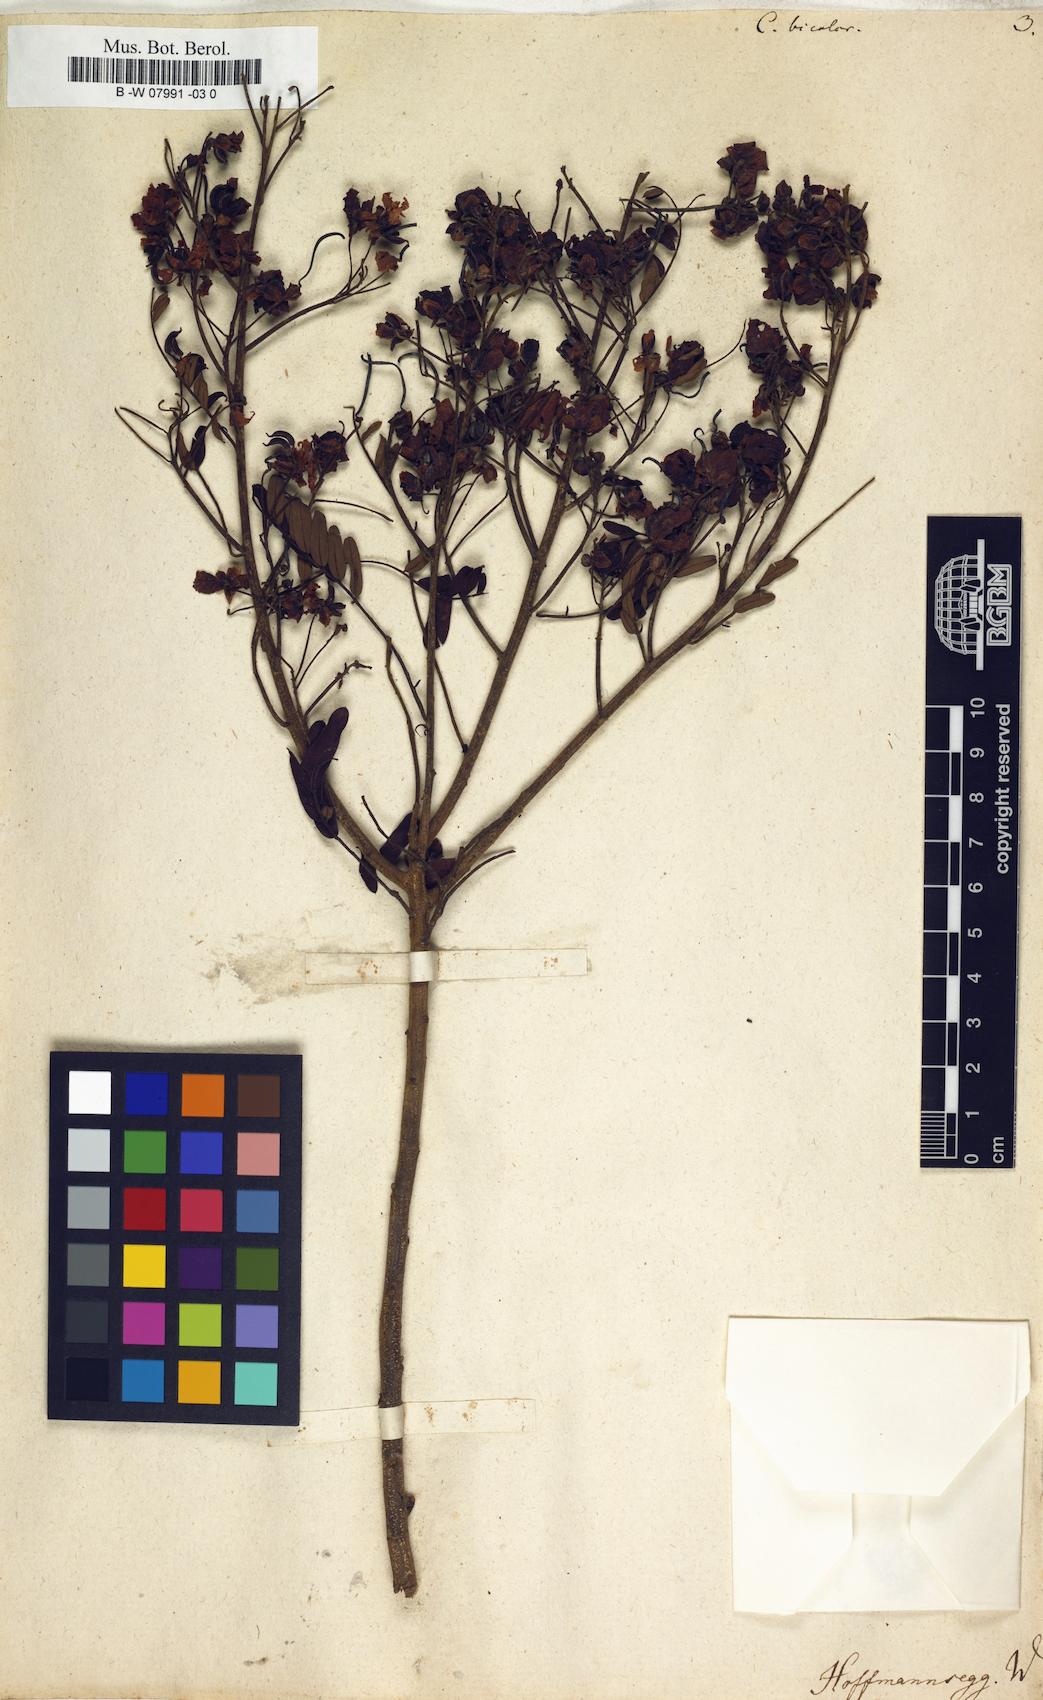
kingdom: Plantae
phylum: Tracheophyta
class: Magnoliopsida
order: Fabales
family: Fabaceae
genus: Cassia
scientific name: Cassia
